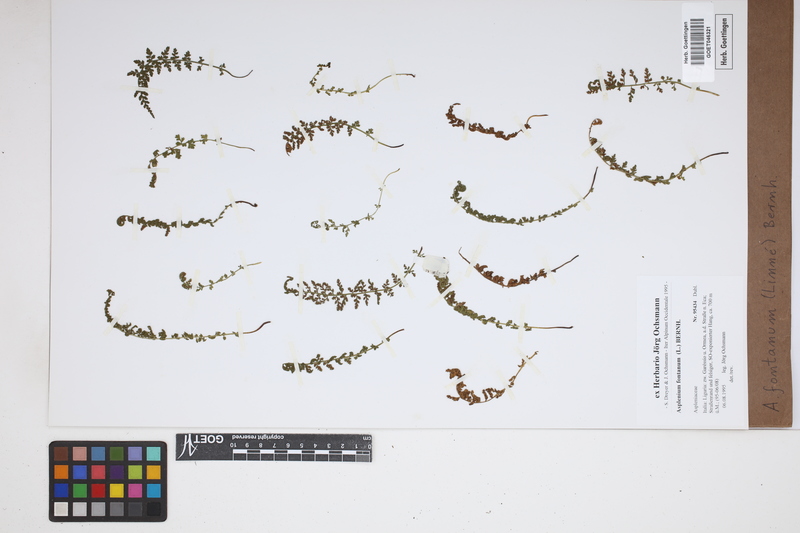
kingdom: Plantae
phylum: Tracheophyta
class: Polypodiopsida
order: Polypodiales
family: Aspleniaceae
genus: Asplenium
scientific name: Asplenium fontanum
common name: Fountain spleenwort
